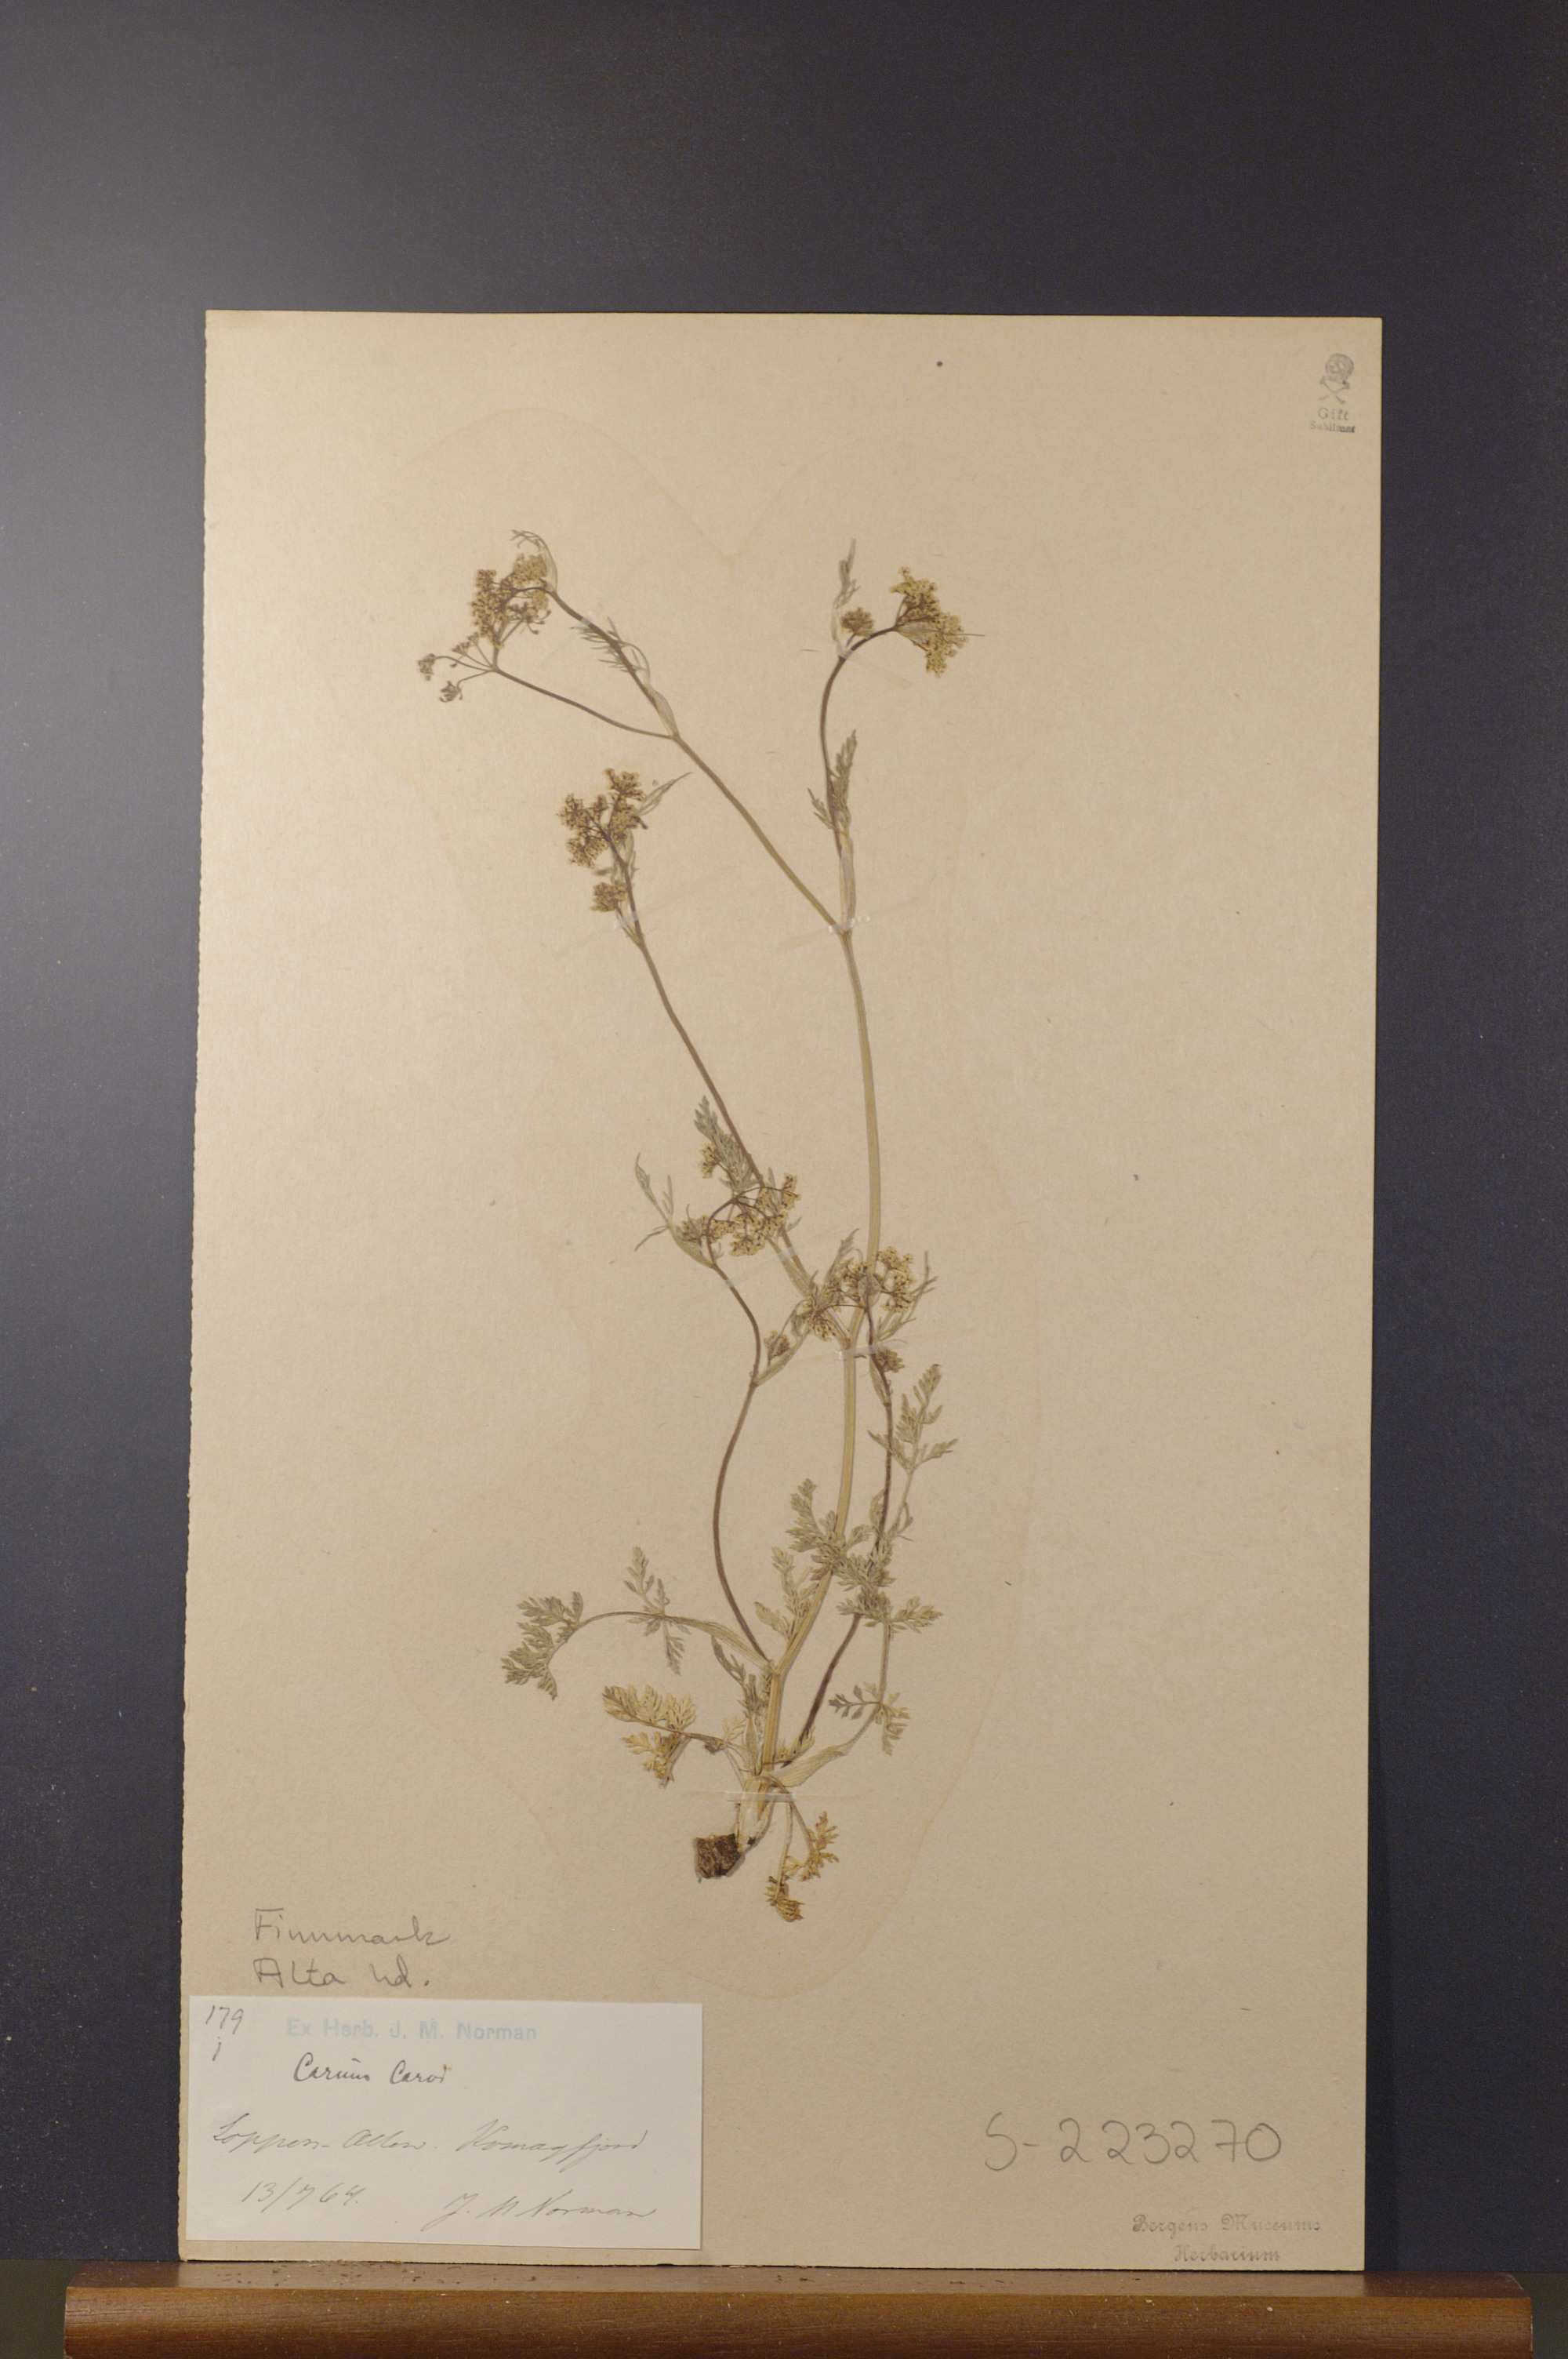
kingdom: Plantae
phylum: Tracheophyta
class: Magnoliopsida
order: Apiales
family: Apiaceae
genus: Carum
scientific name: Carum carvi
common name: Caraway
